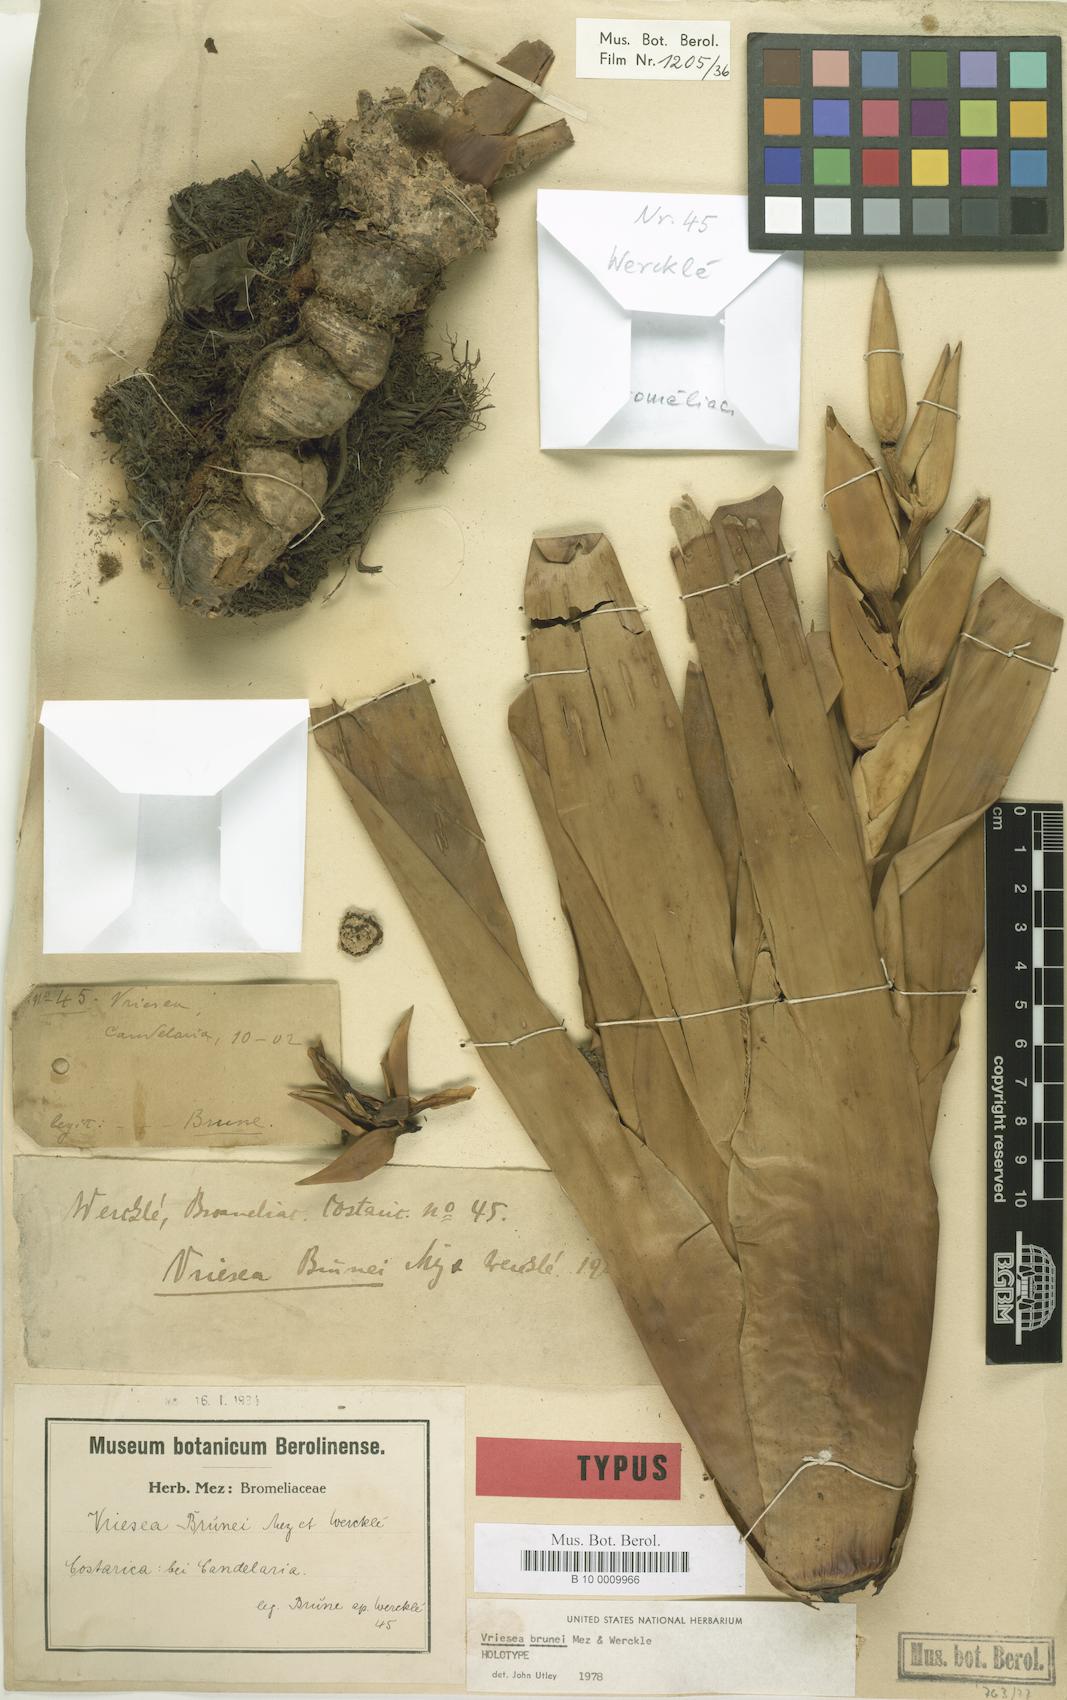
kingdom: Plantae
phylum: Tracheophyta
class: Liliopsida
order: Poales
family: Bromeliaceae
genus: Werauhia
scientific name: Werauhia brunei
